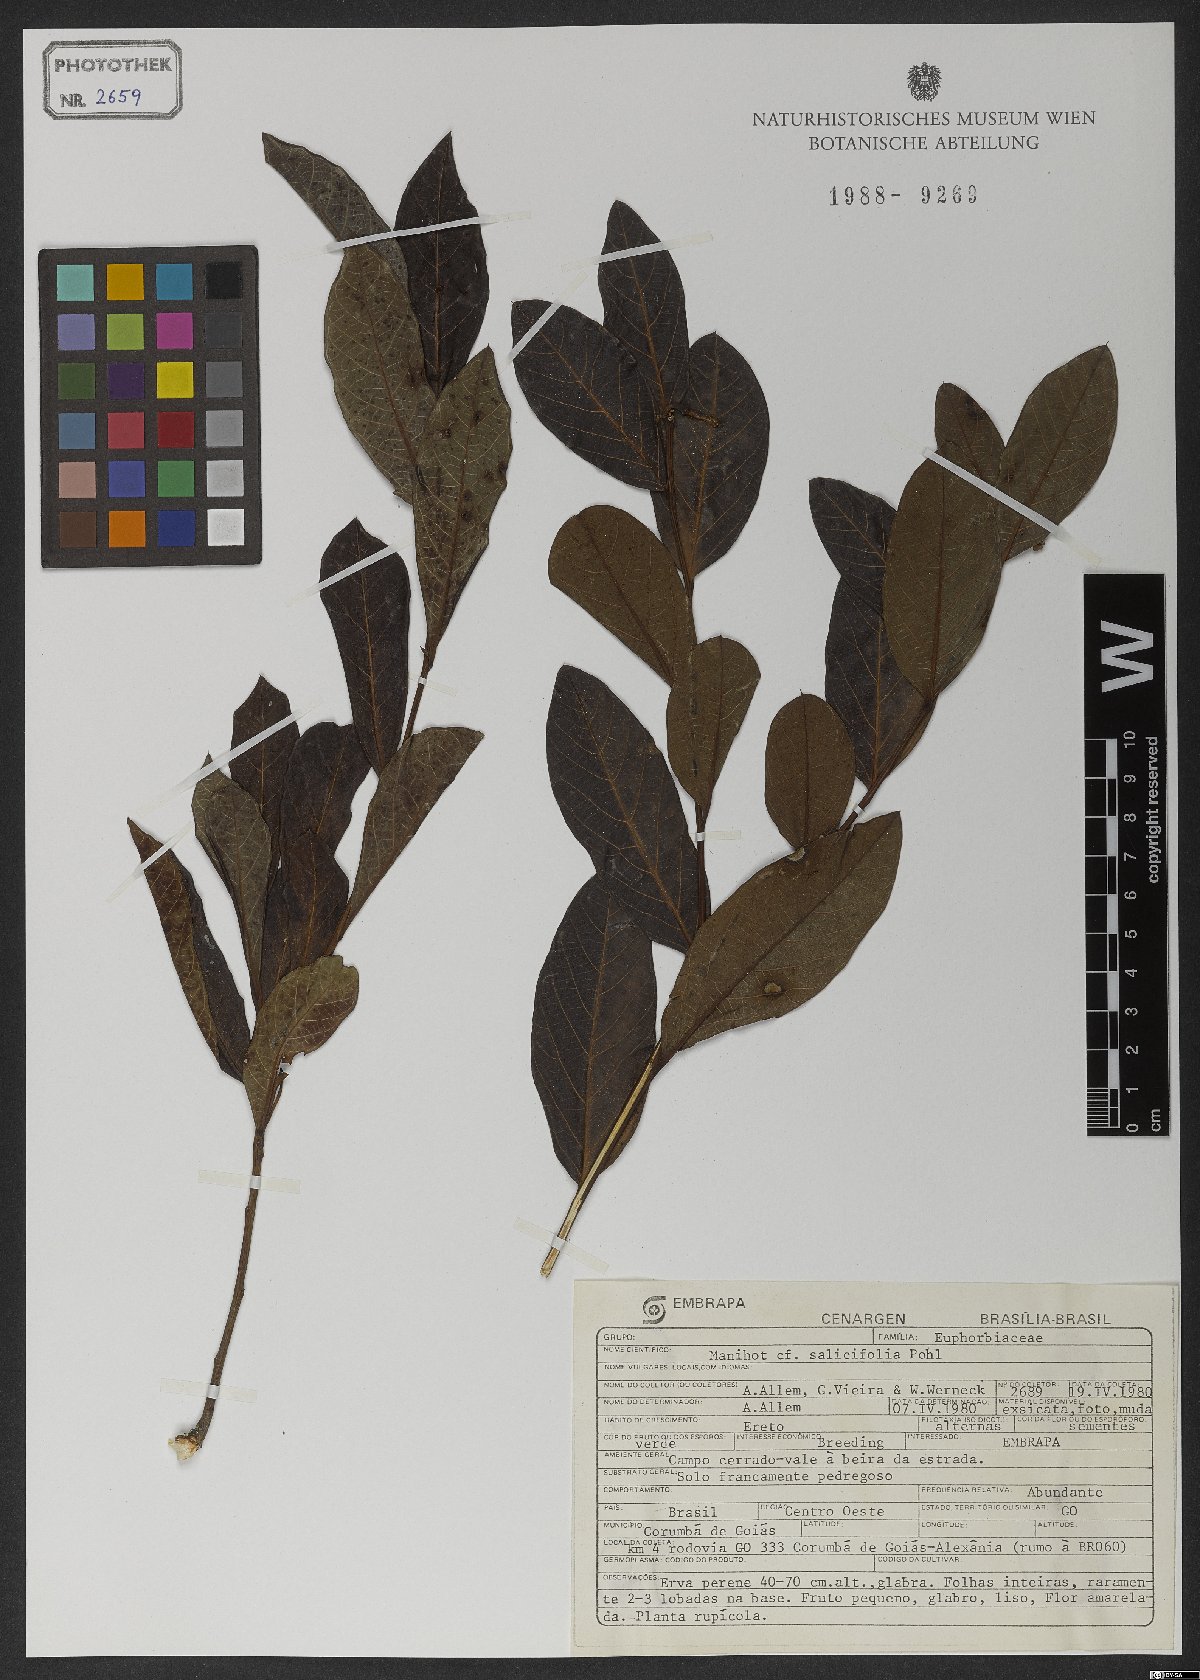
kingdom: Plantae
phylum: Tracheophyta
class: Magnoliopsida
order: Malpighiales
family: Euphorbiaceae
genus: Manihot
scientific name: Manihot salicifolia
